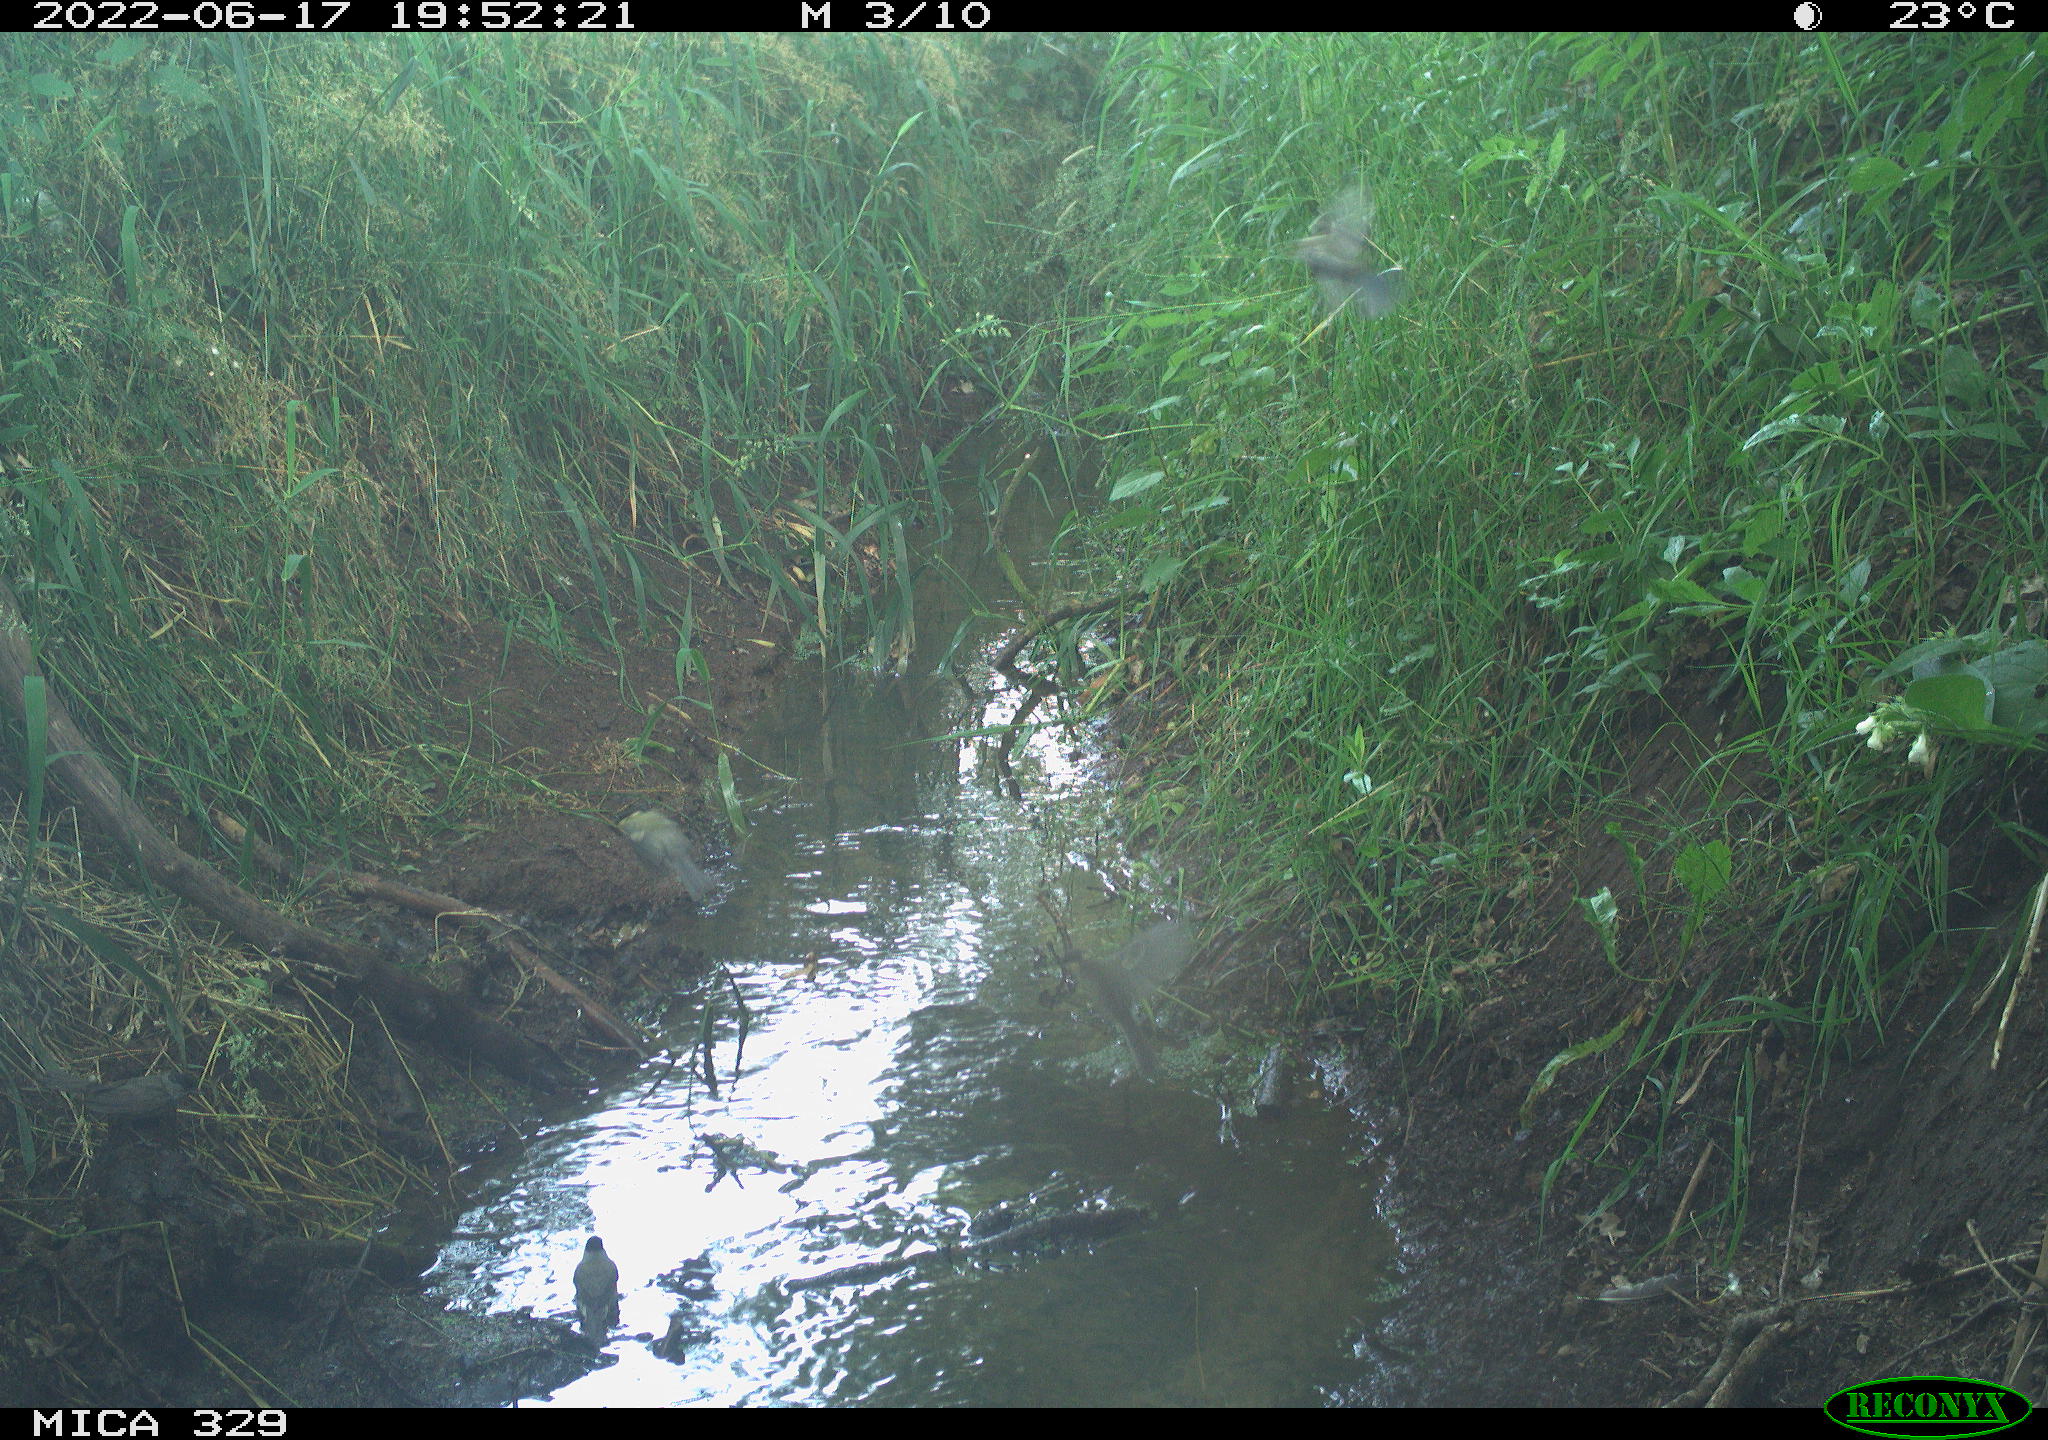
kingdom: Animalia
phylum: Chordata
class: Aves
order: Passeriformes
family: Paridae
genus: Parus
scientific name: Parus major
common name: Great tit
